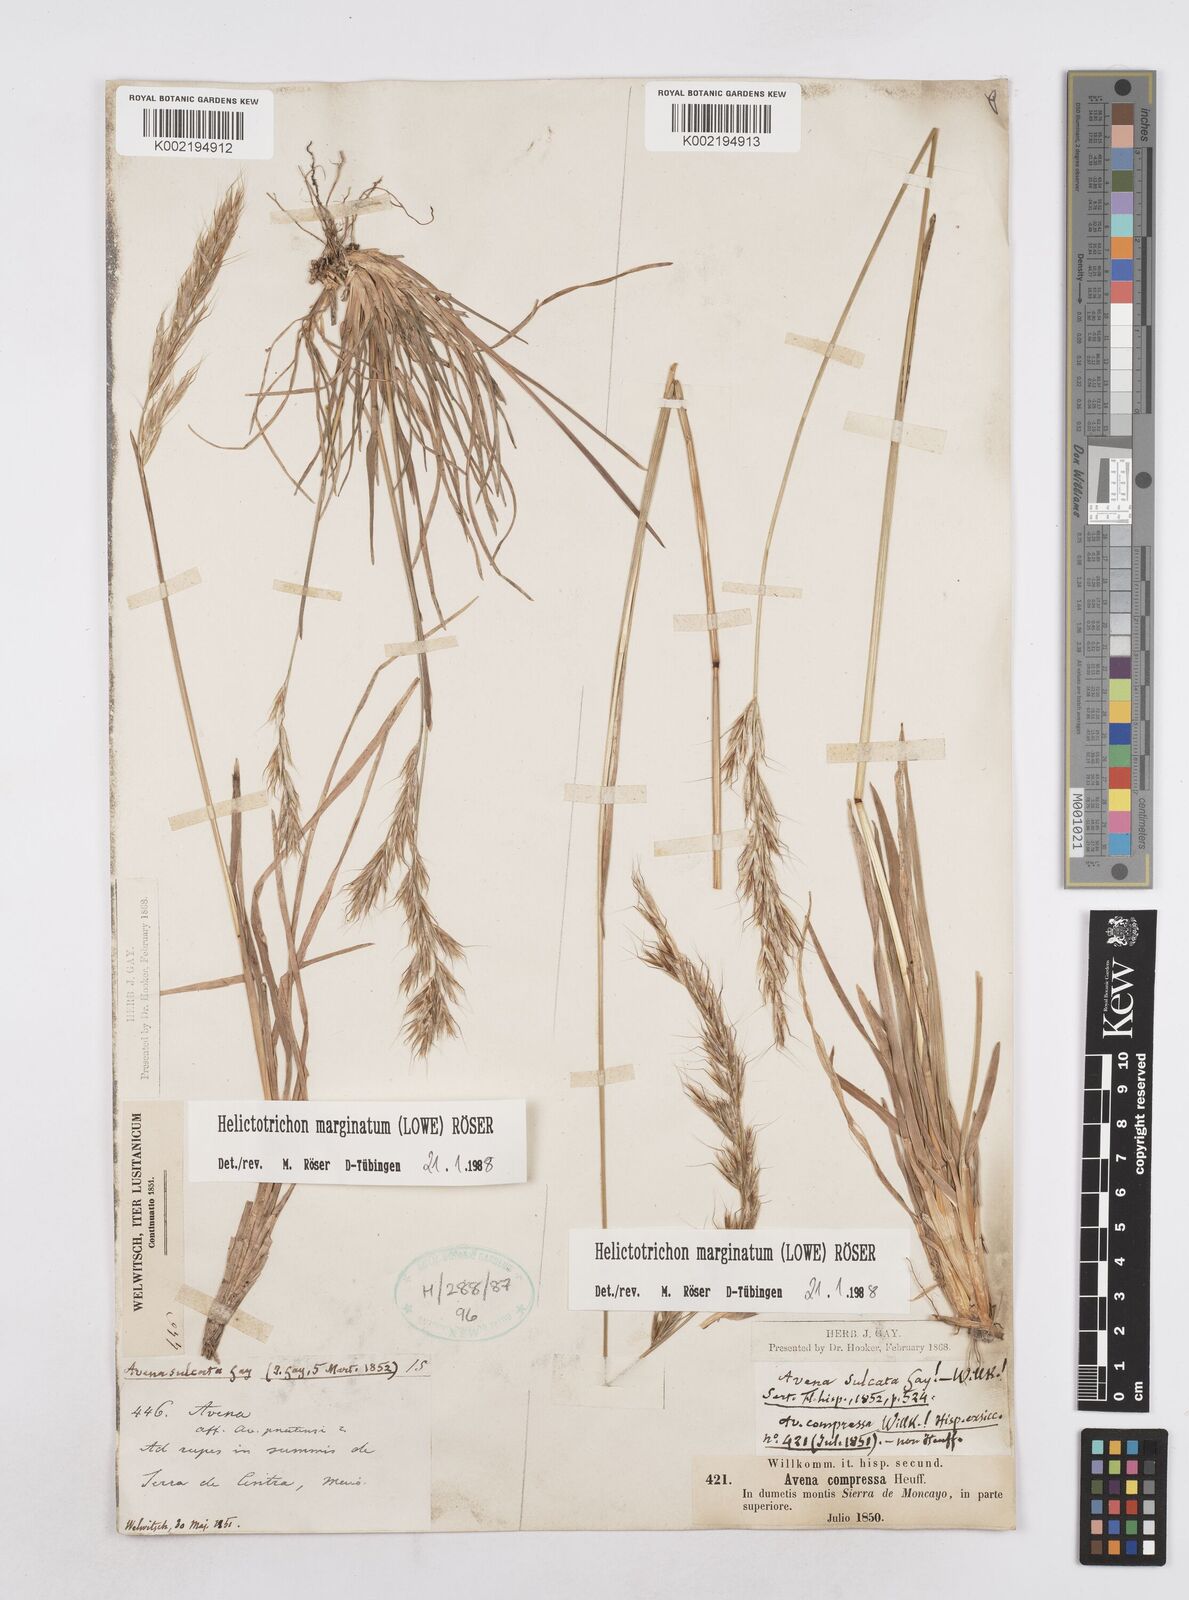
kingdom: Plantae
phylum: Tracheophyta
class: Liliopsida
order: Poales
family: Poaceae
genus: Helictotrichon
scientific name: Helictotrichon
